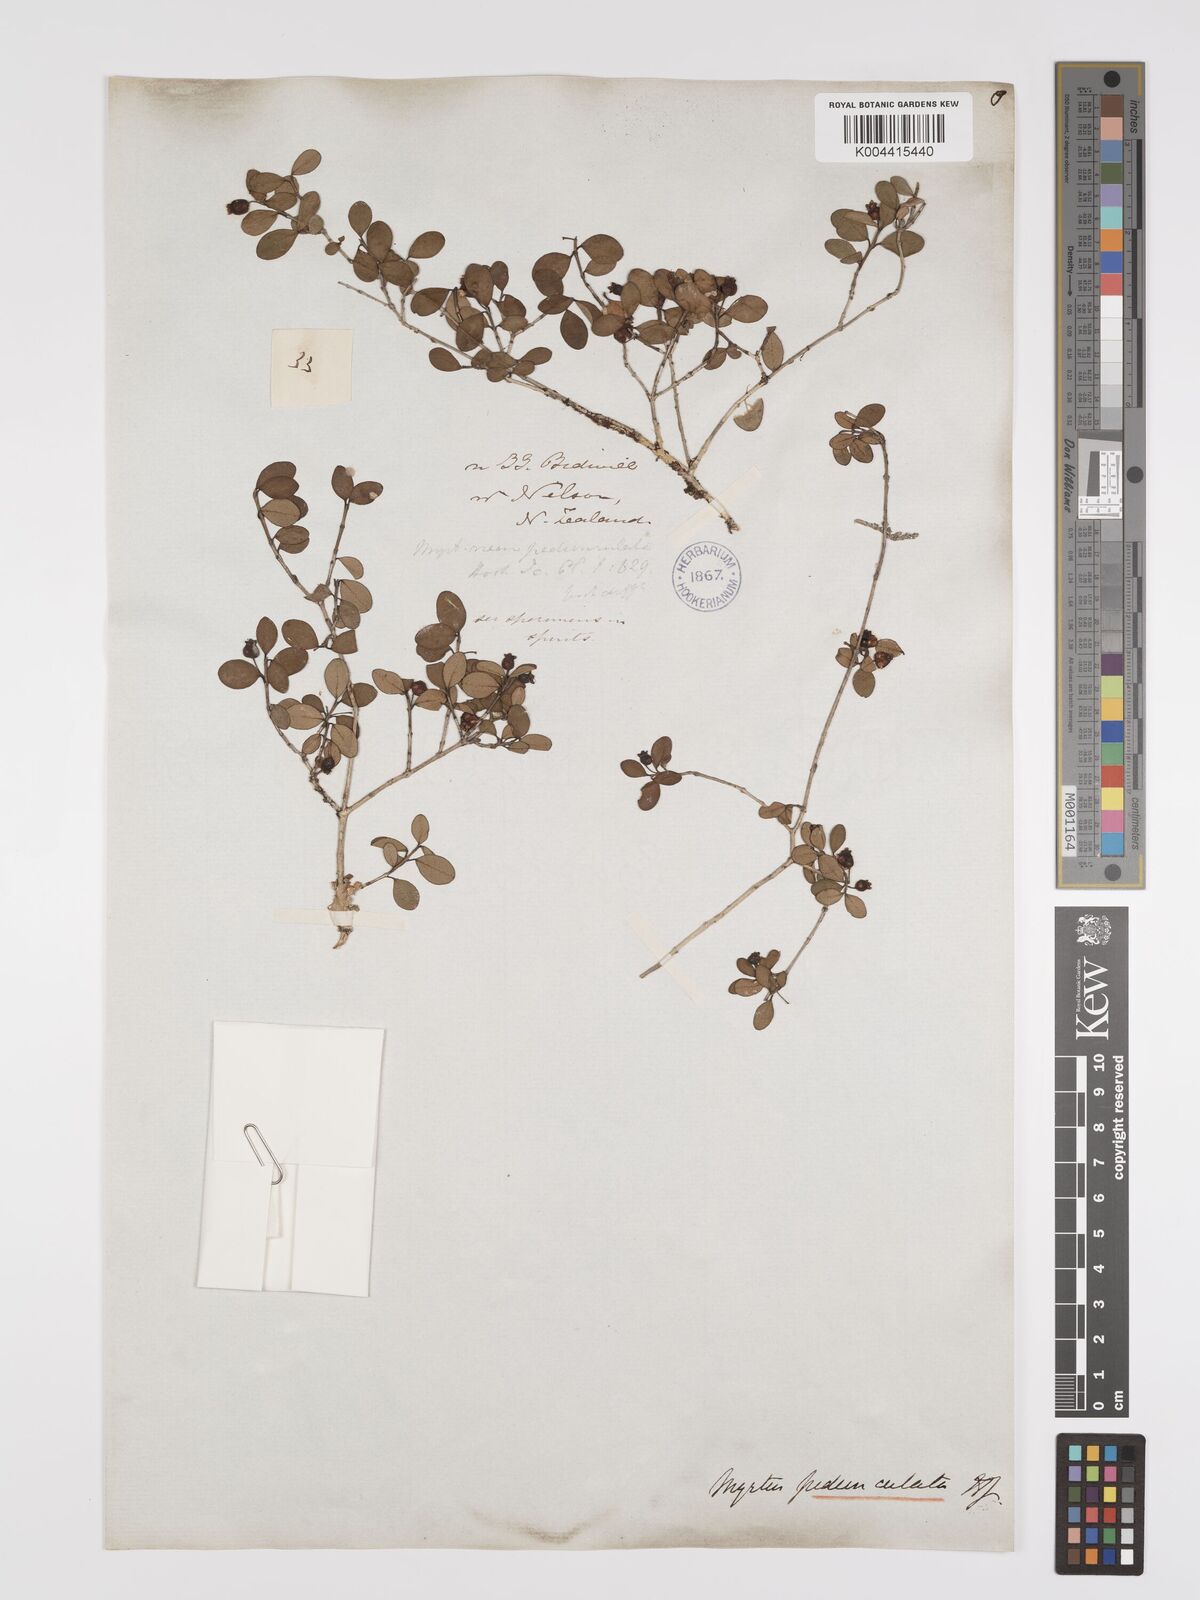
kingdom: Plantae
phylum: Tracheophyta
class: Magnoliopsida
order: Myrtales
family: Myrtaceae
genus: Neomyrtus
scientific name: Neomyrtus pedunculata
